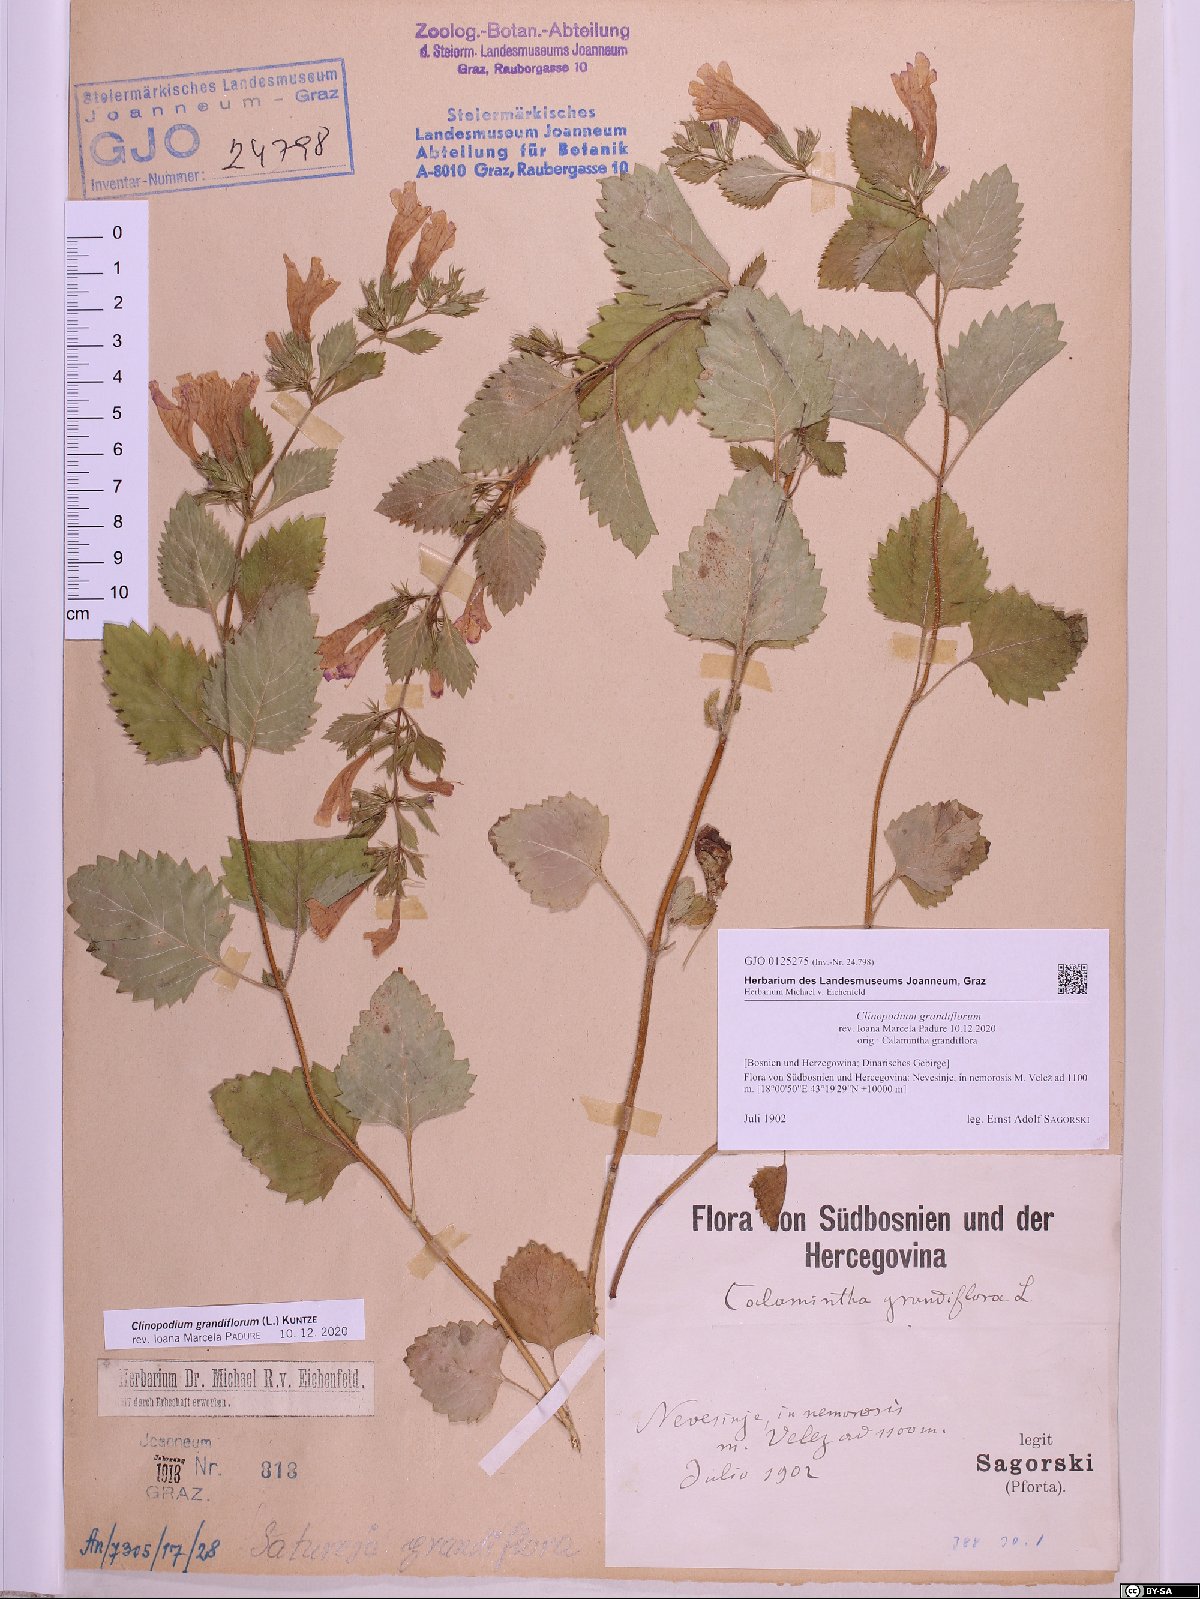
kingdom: Plantae
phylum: Tracheophyta
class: Magnoliopsida
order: Lamiales
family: Lamiaceae
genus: Clinopodium
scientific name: Clinopodium grandiflorum
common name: Greater calamint
